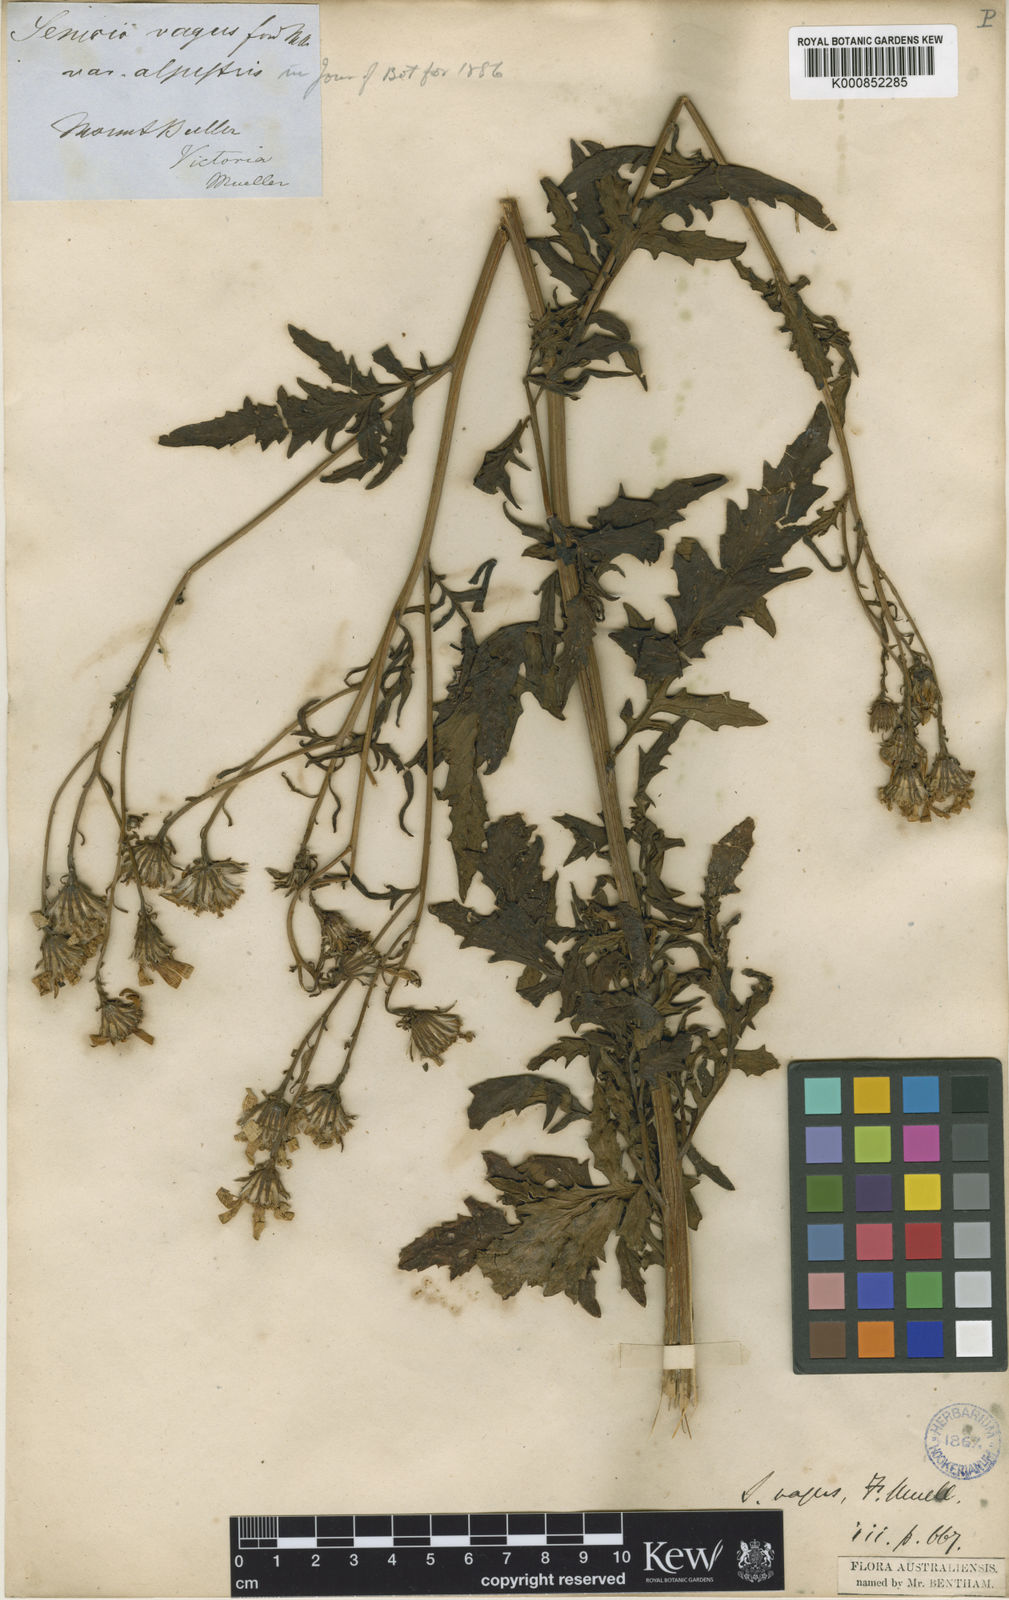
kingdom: Plantae
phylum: Tracheophyta
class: Magnoliopsida
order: Asterales
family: Asteraceae
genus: Senecio
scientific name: Senecio vagus
